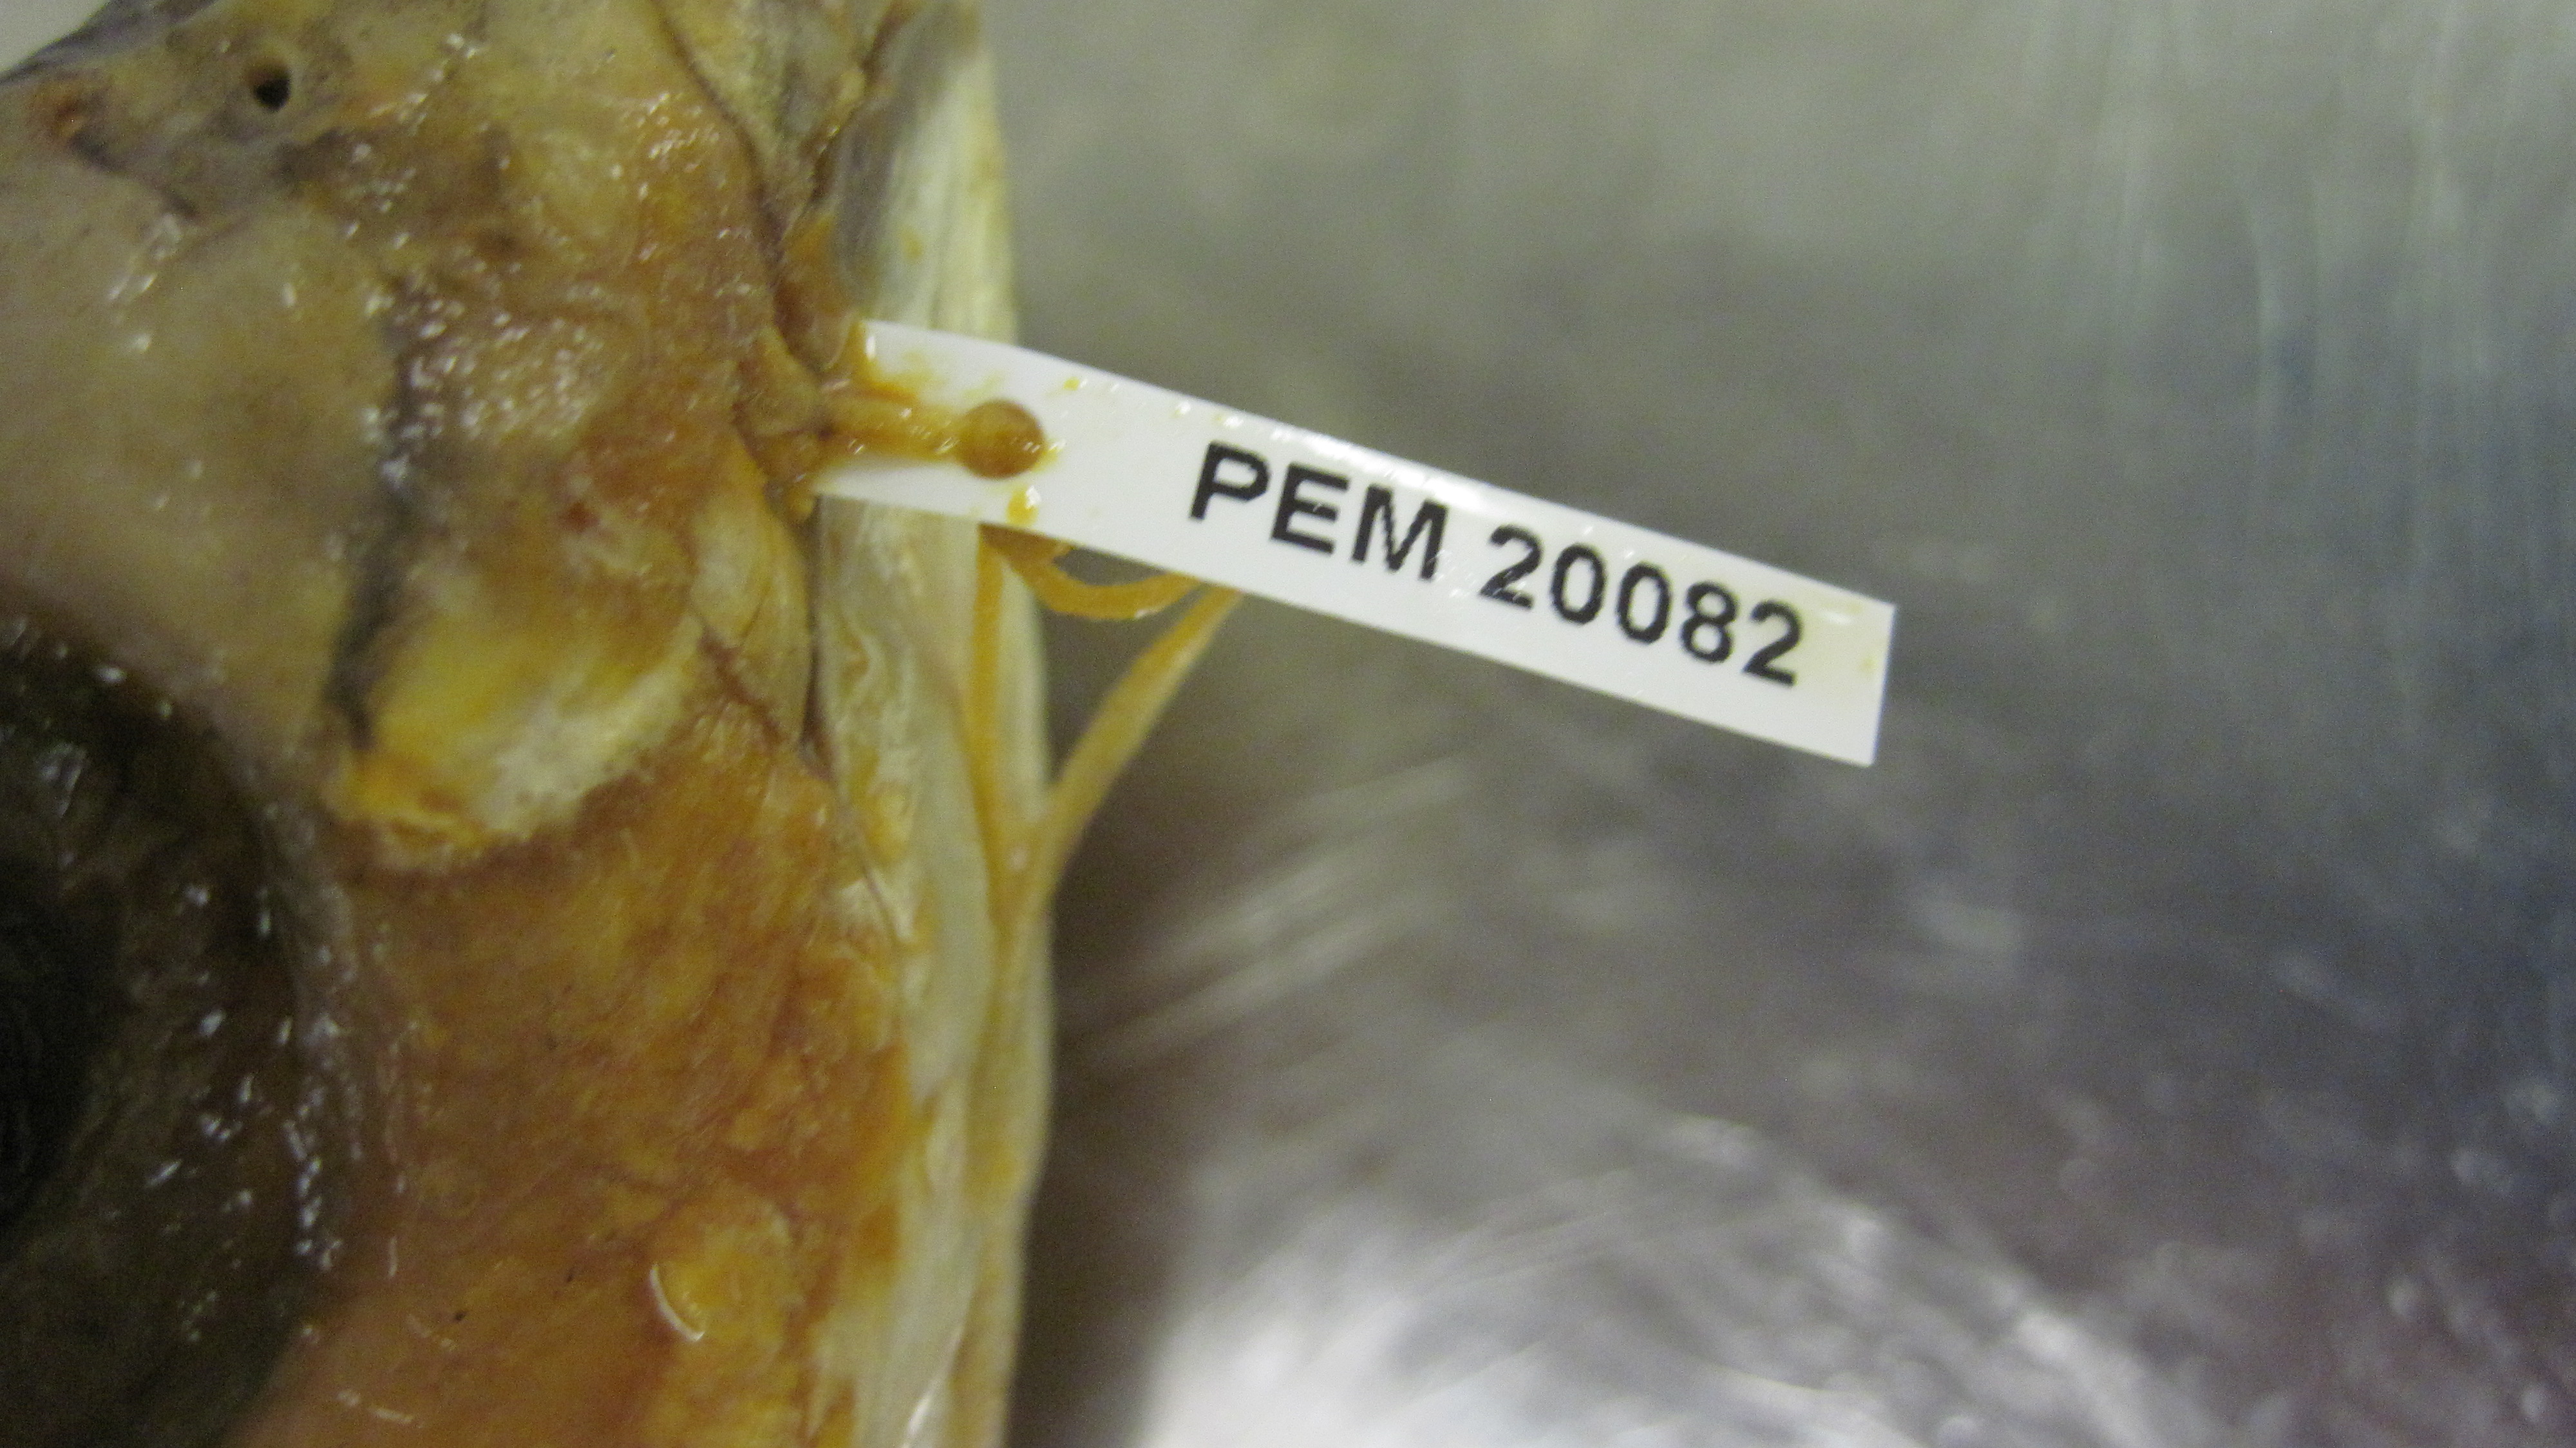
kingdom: Animalia
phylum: Chordata
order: Mugiliformes
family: Mugilidae
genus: Chelon
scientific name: Chelon tricuspidens
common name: Striped mullet
